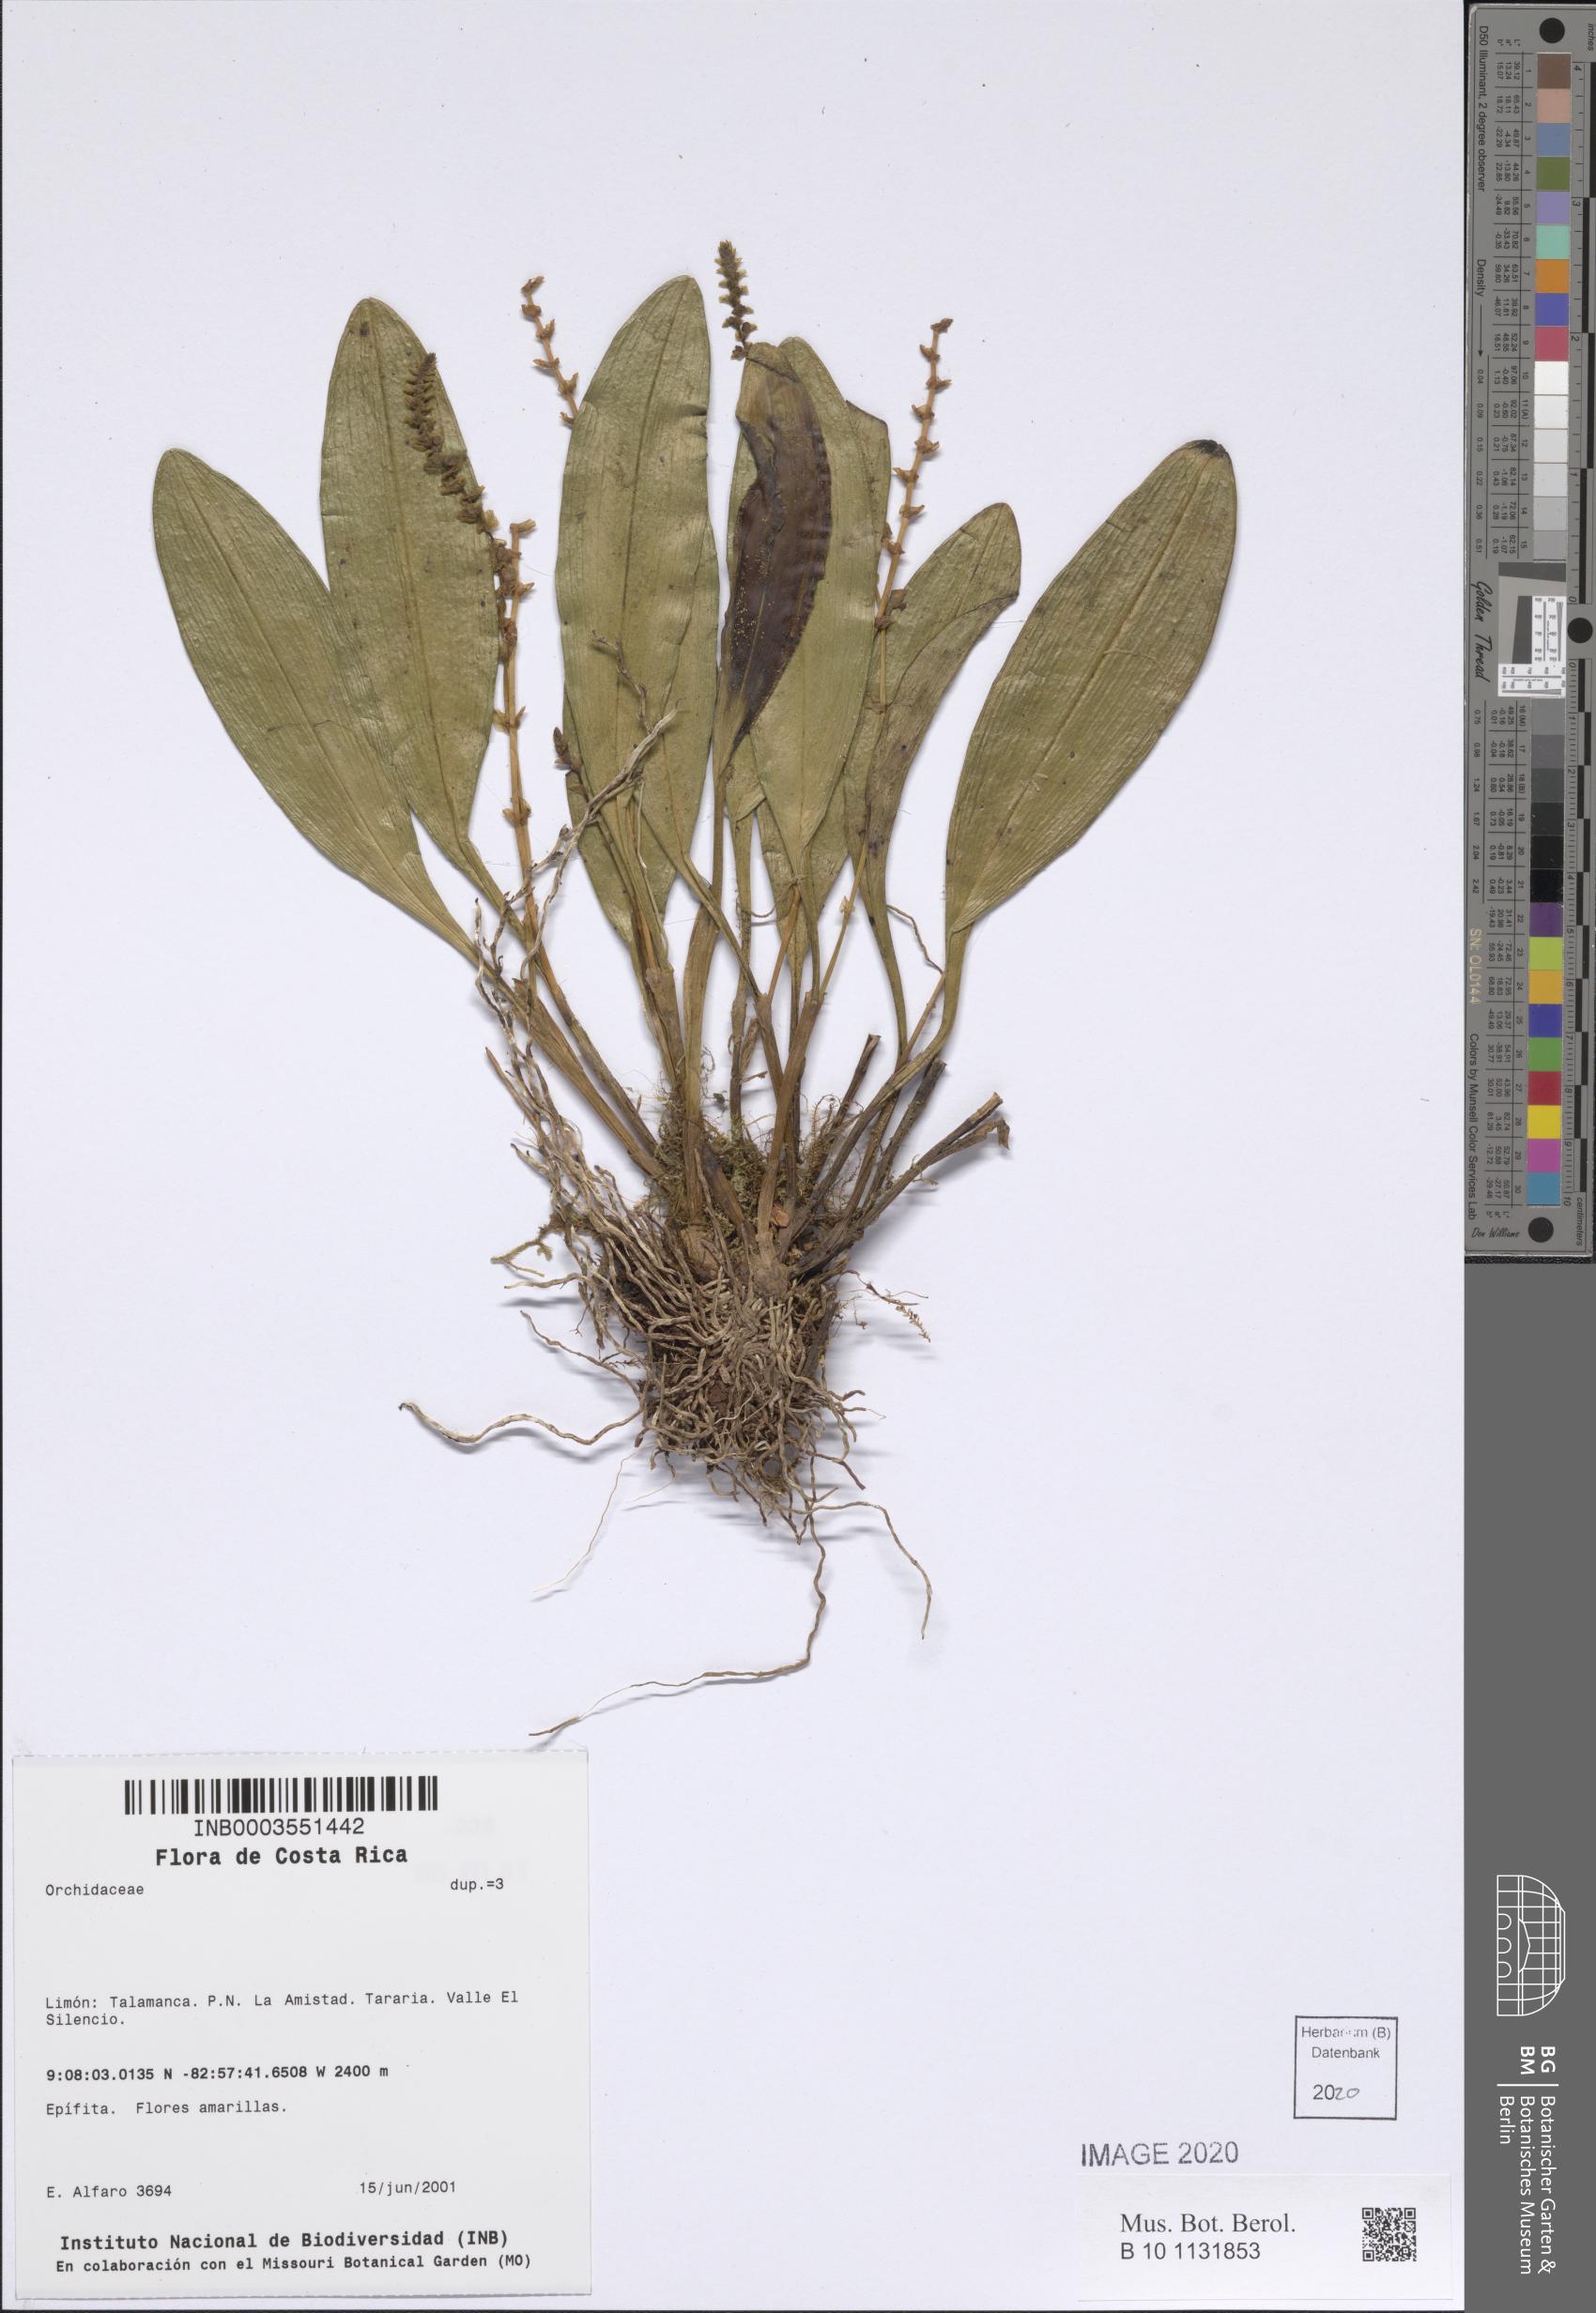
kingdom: Plantae
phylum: Tracheophyta
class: Liliopsida
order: Asparagales
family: Orchidaceae
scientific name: Orchidaceae
